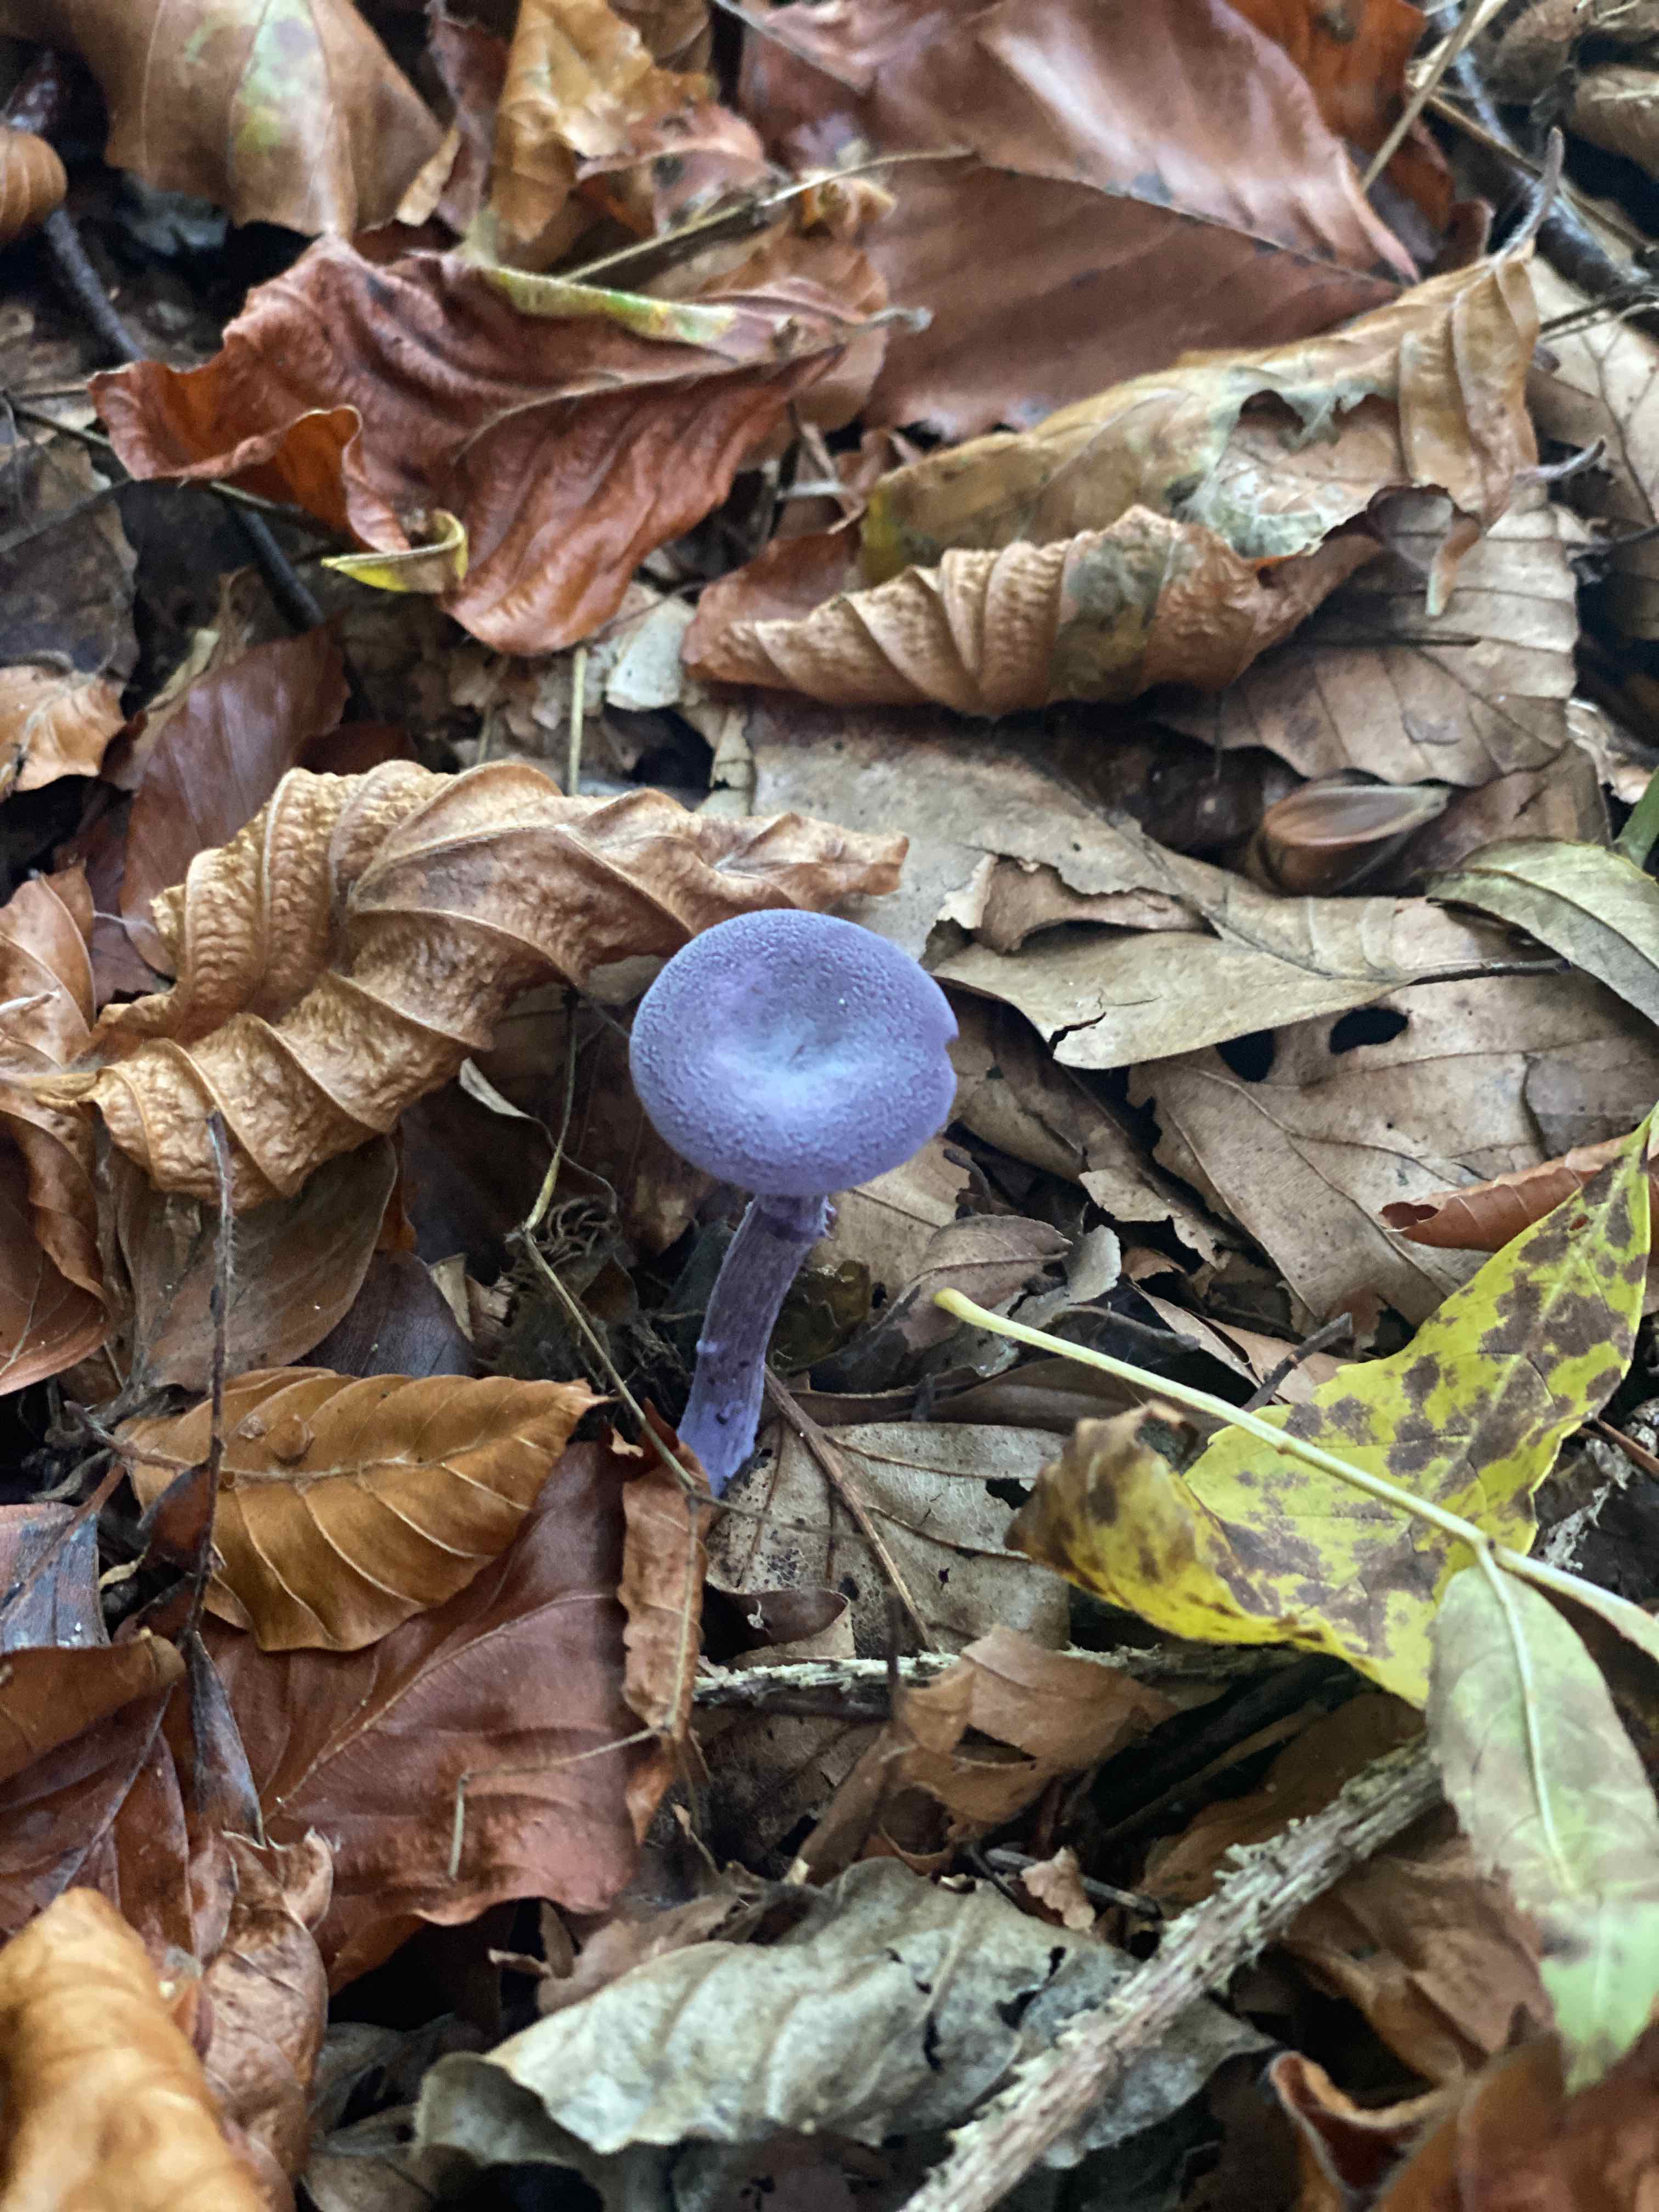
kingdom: Fungi
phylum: Basidiomycota
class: Agaricomycetes
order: Agaricales
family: Hydnangiaceae
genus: Laccaria
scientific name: Laccaria amethystina
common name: violet ametysthat
